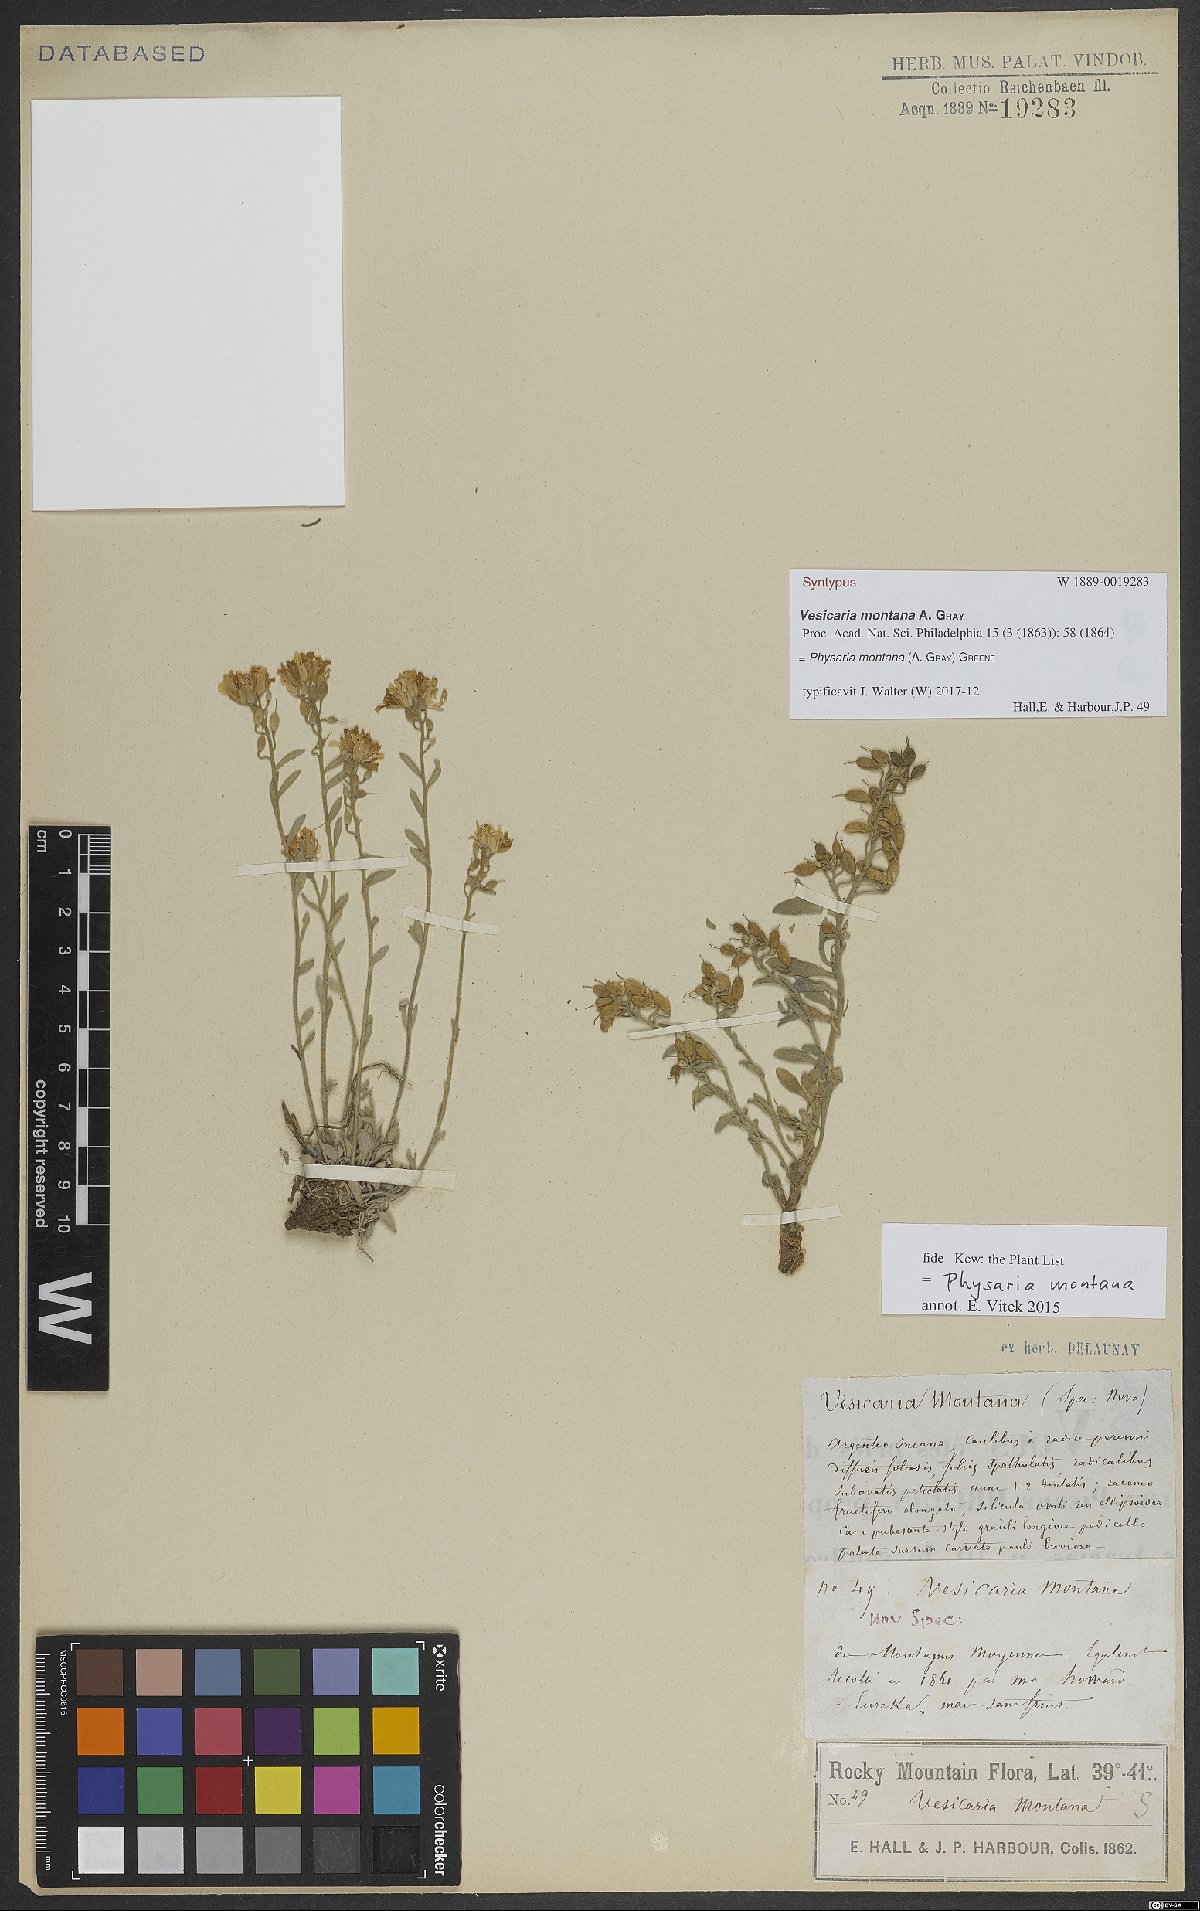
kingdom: Plantae
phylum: Tracheophyta
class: Magnoliopsida
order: Brassicales
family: Brassicaceae
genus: Physaria
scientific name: Physaria montana
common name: Mountain bladderpod
